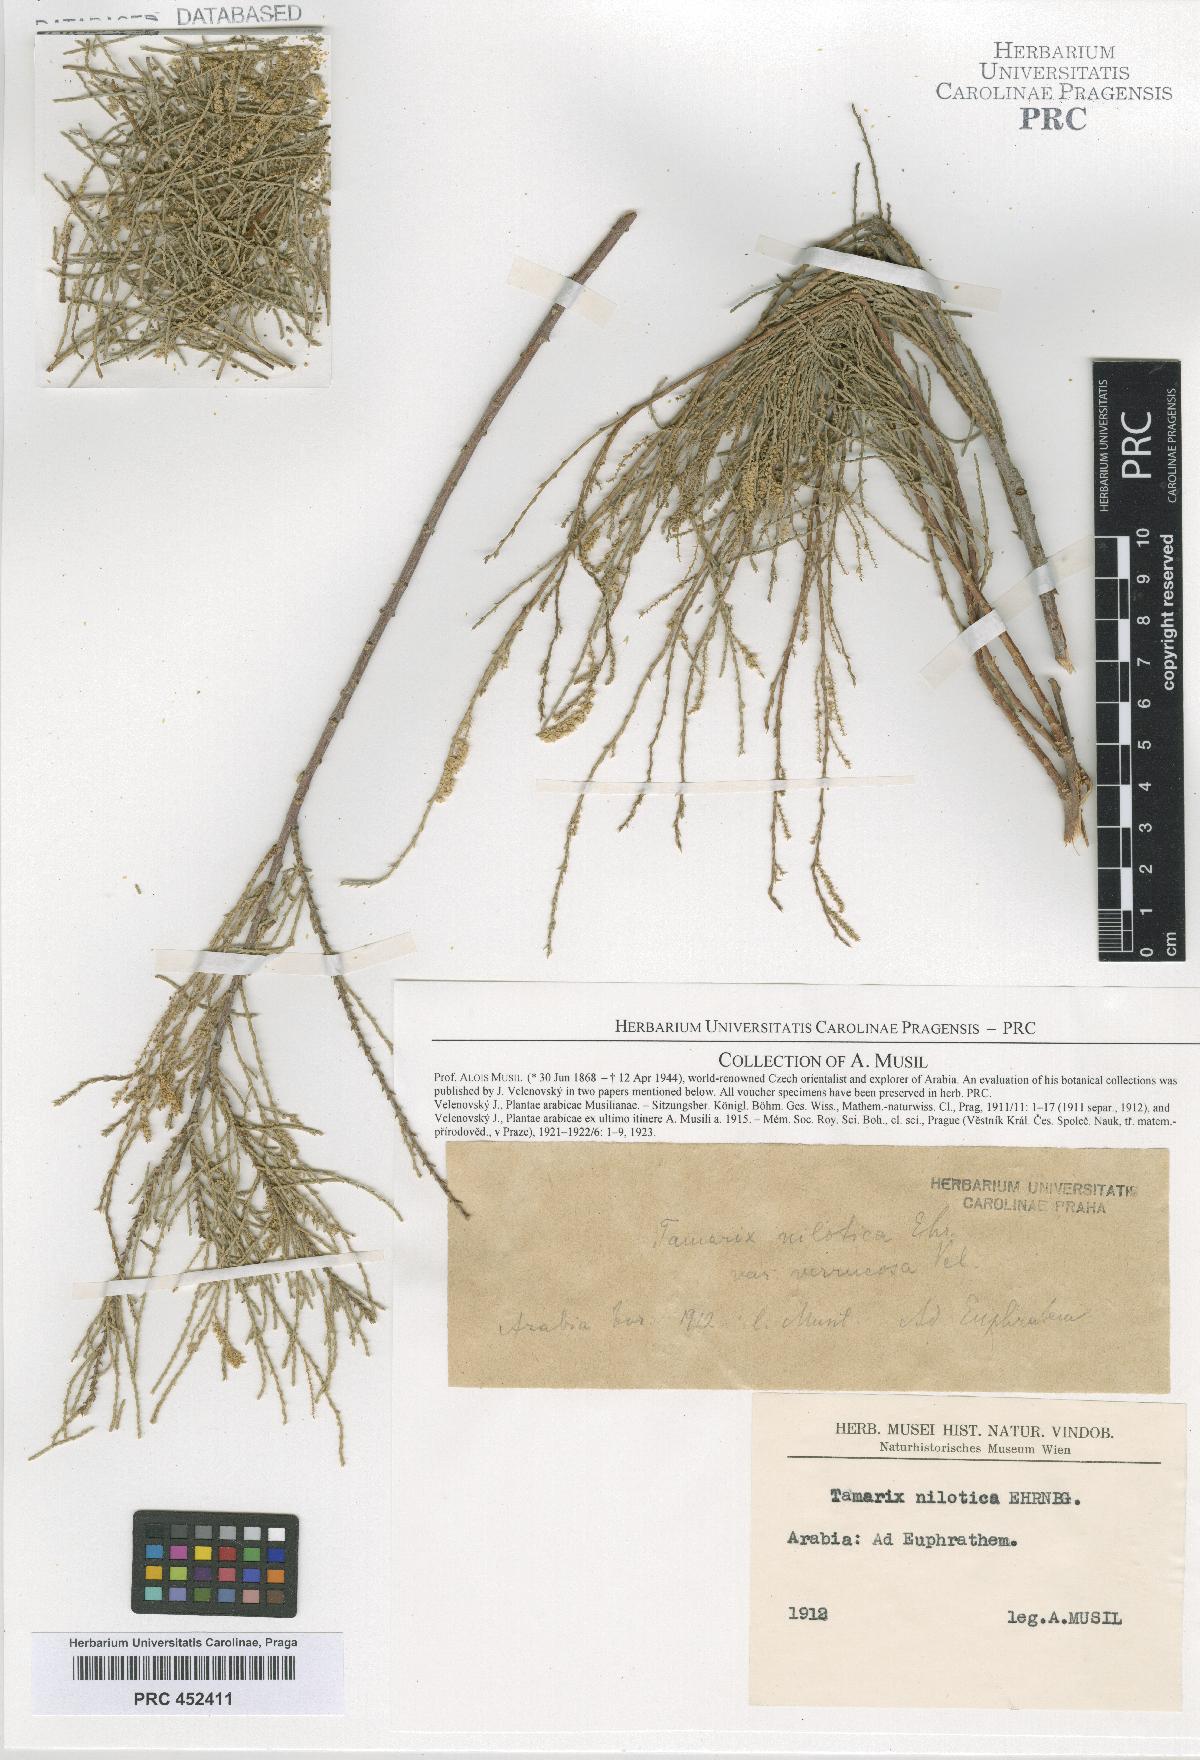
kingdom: Plantae
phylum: Tracheophyta
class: Magnoliopsida
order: Caryophyllales
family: Tamaricaceae
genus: Tamarix
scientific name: Tamarix nilotica
